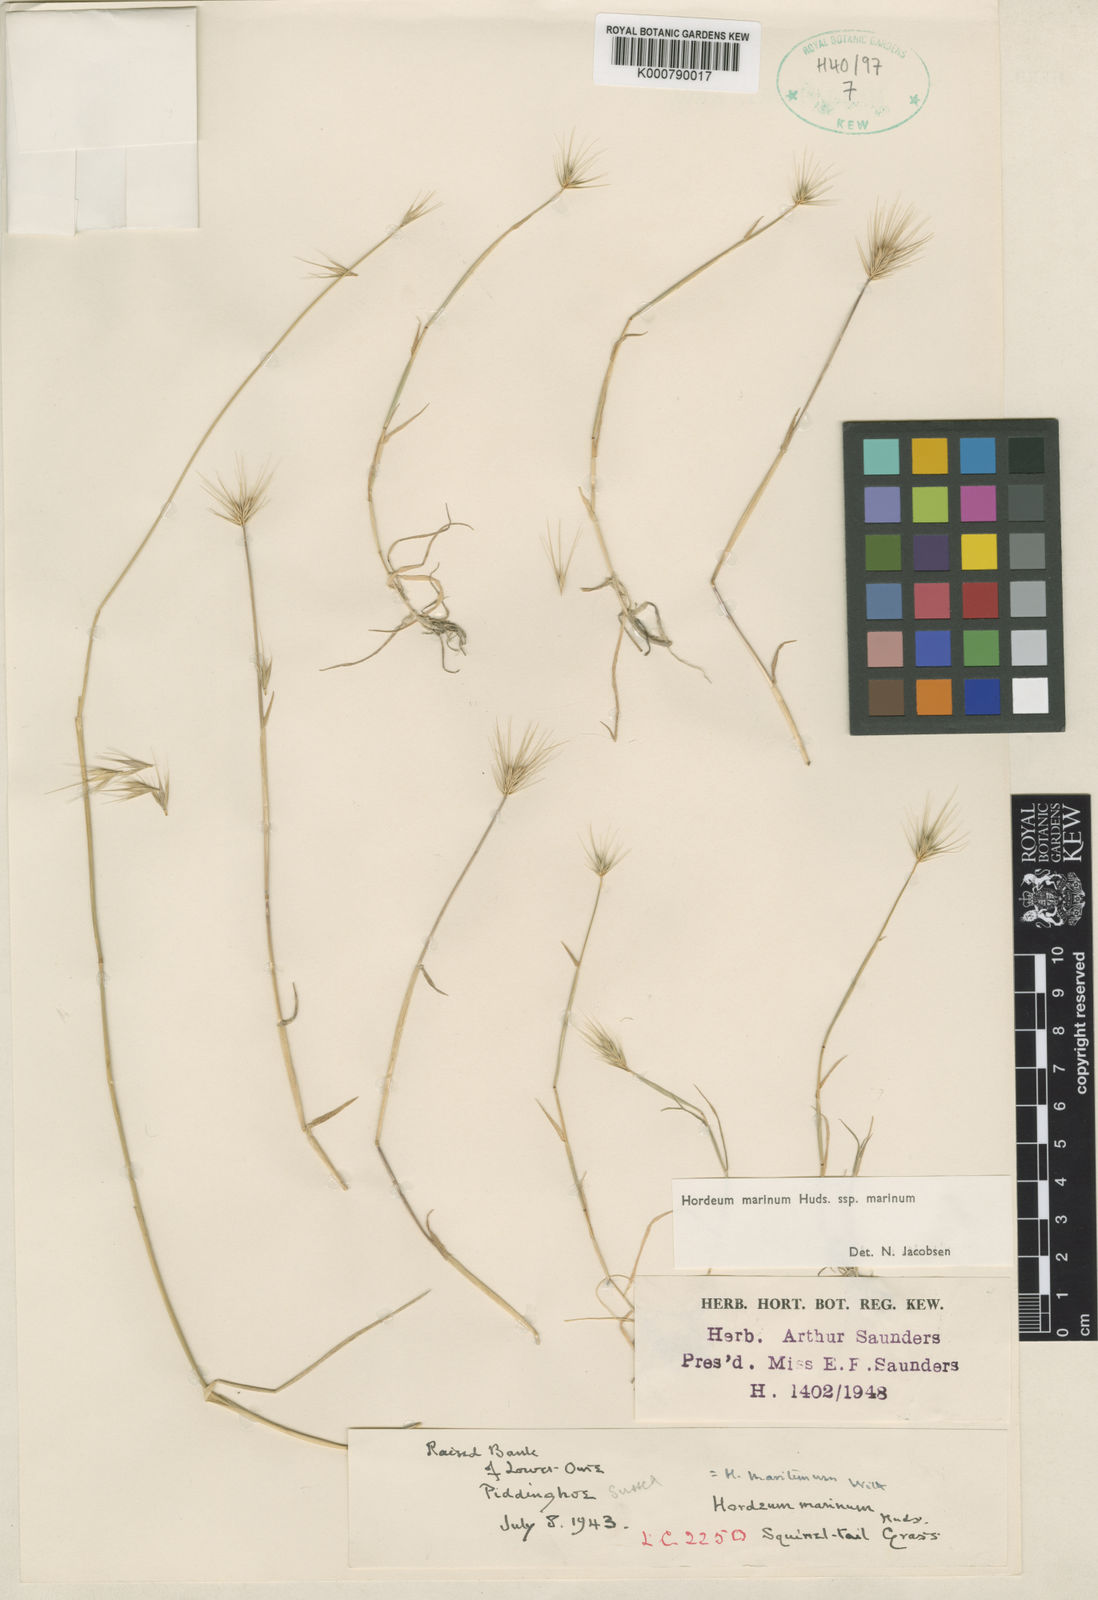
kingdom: Plantae
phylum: Tracheophyta
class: Liliopsida
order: Poales
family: Poaceae
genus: Hordeum
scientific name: Hordeum marinum
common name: Sea barley
